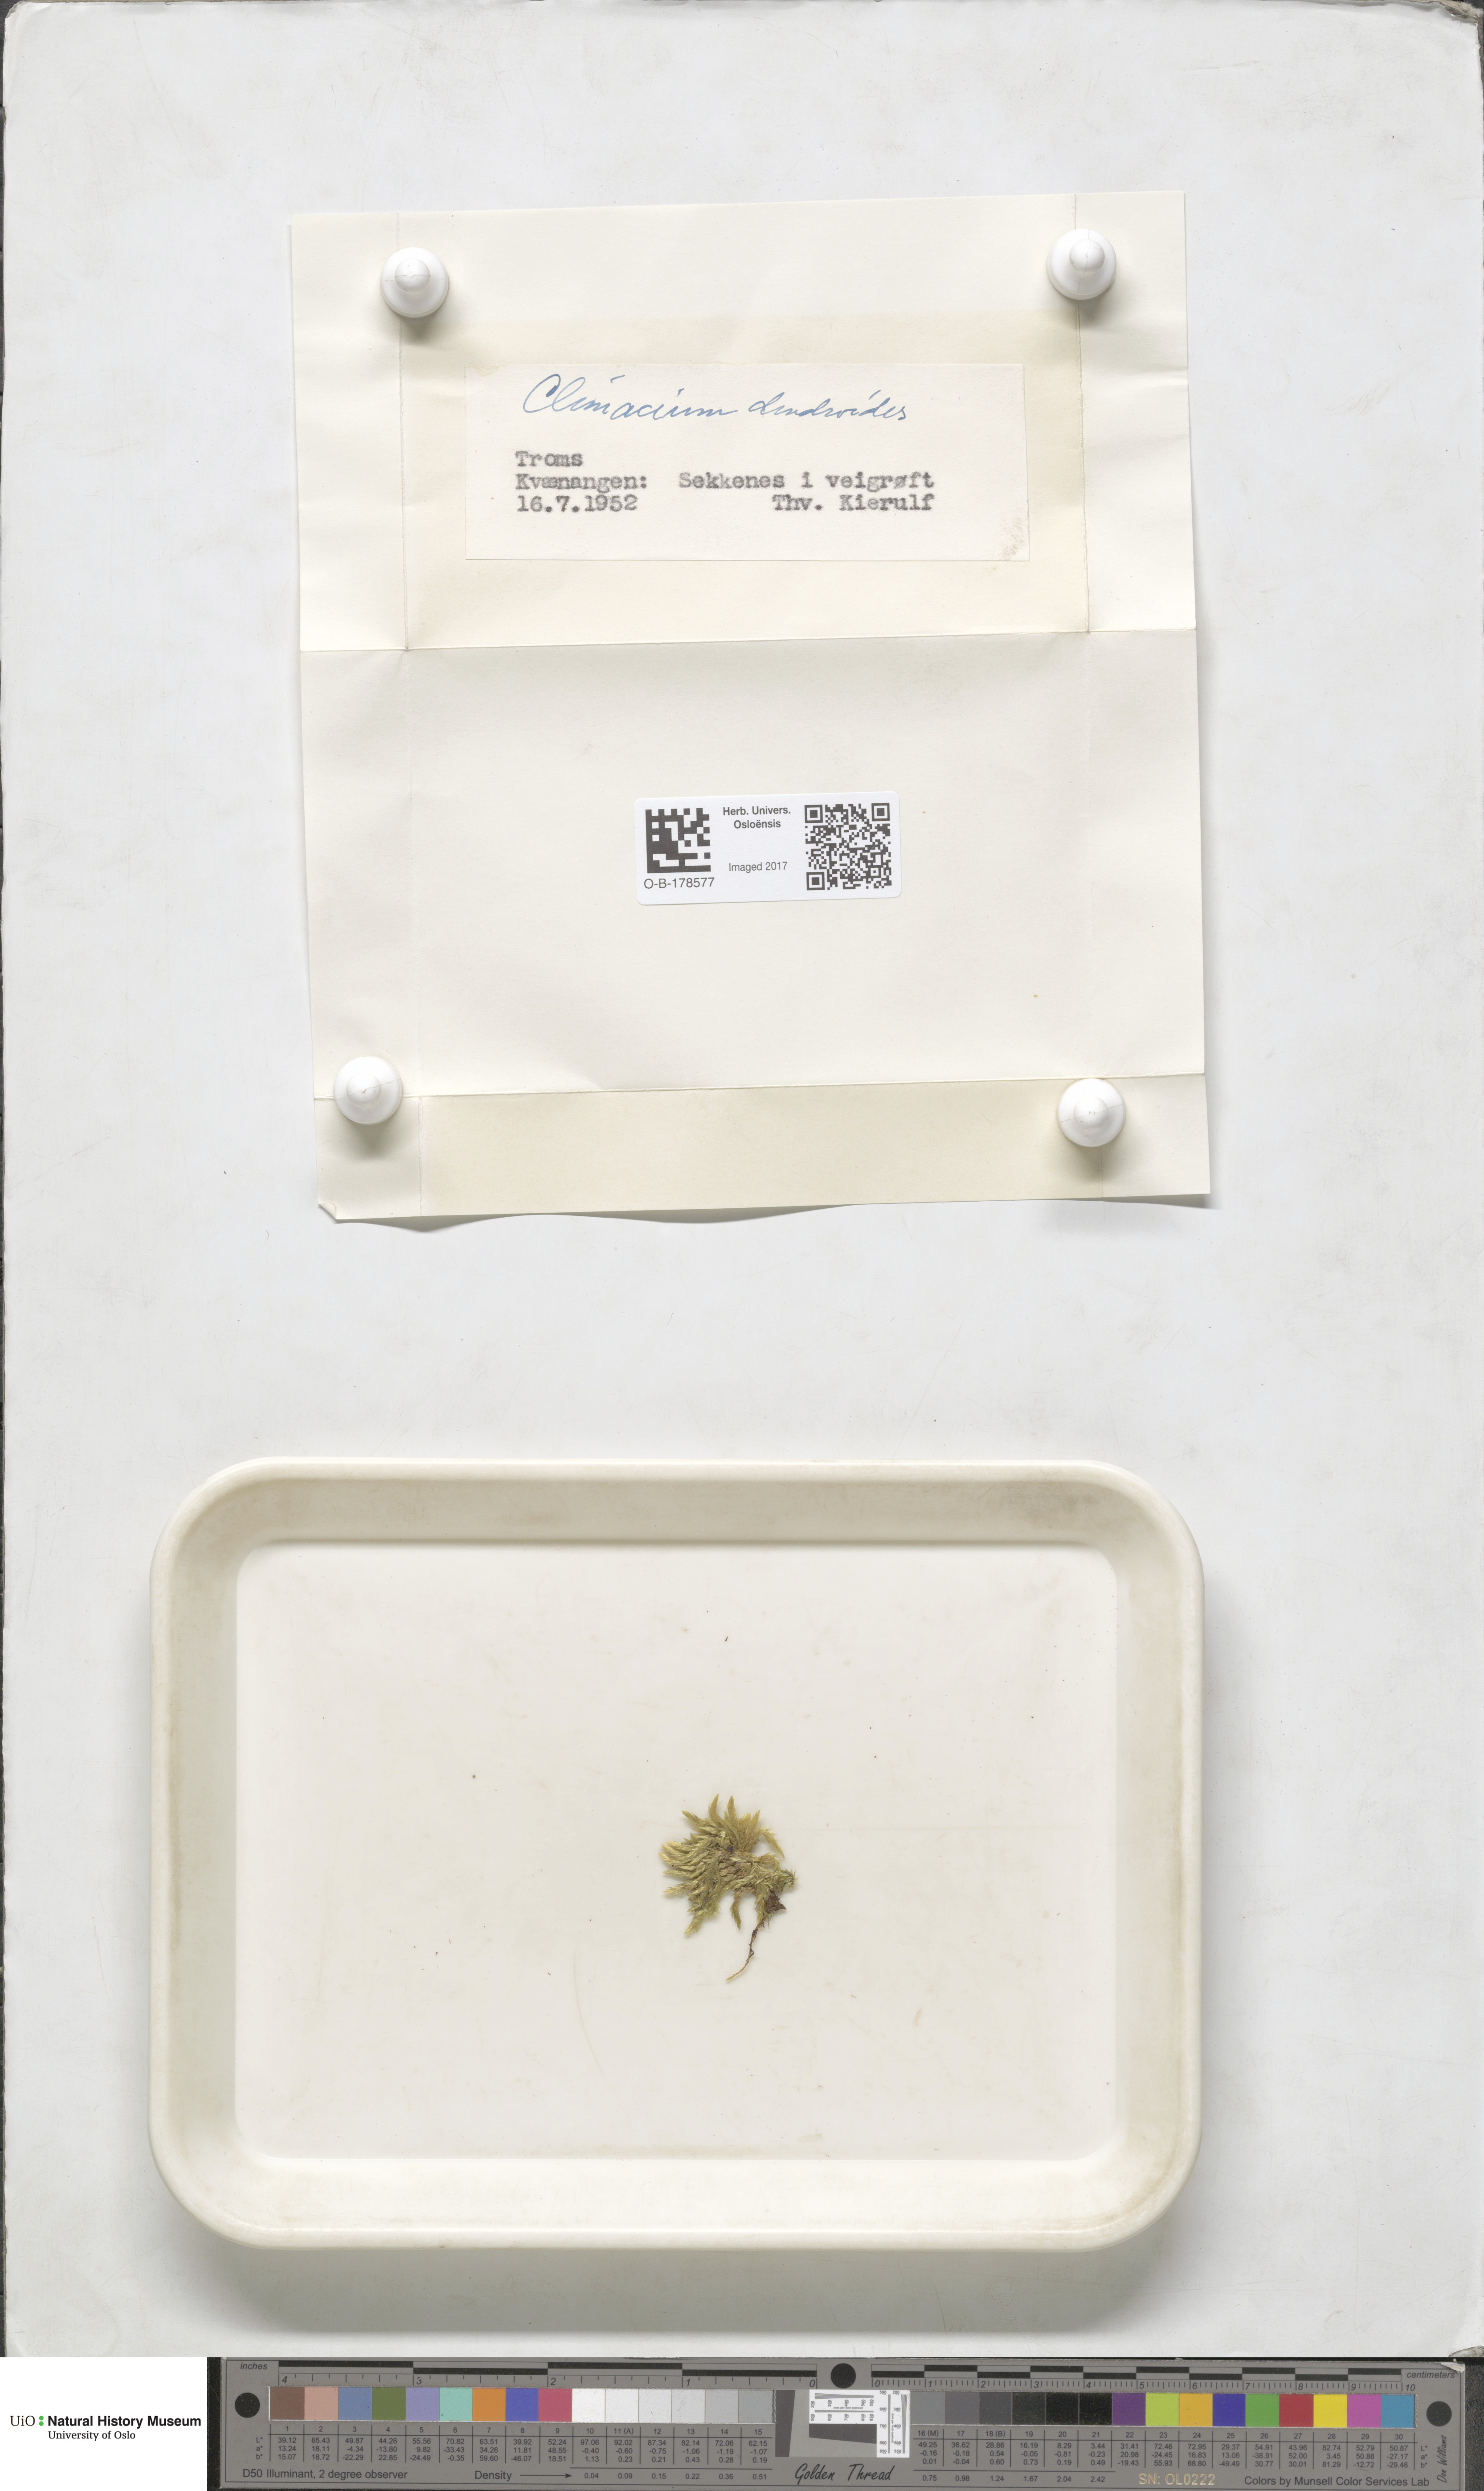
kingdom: Plantae
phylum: Bryophyta
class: Bryopsida
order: Hypnales
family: Climaciaceae
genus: Climacium
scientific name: Climacium dendroides
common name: Northern tree moss
